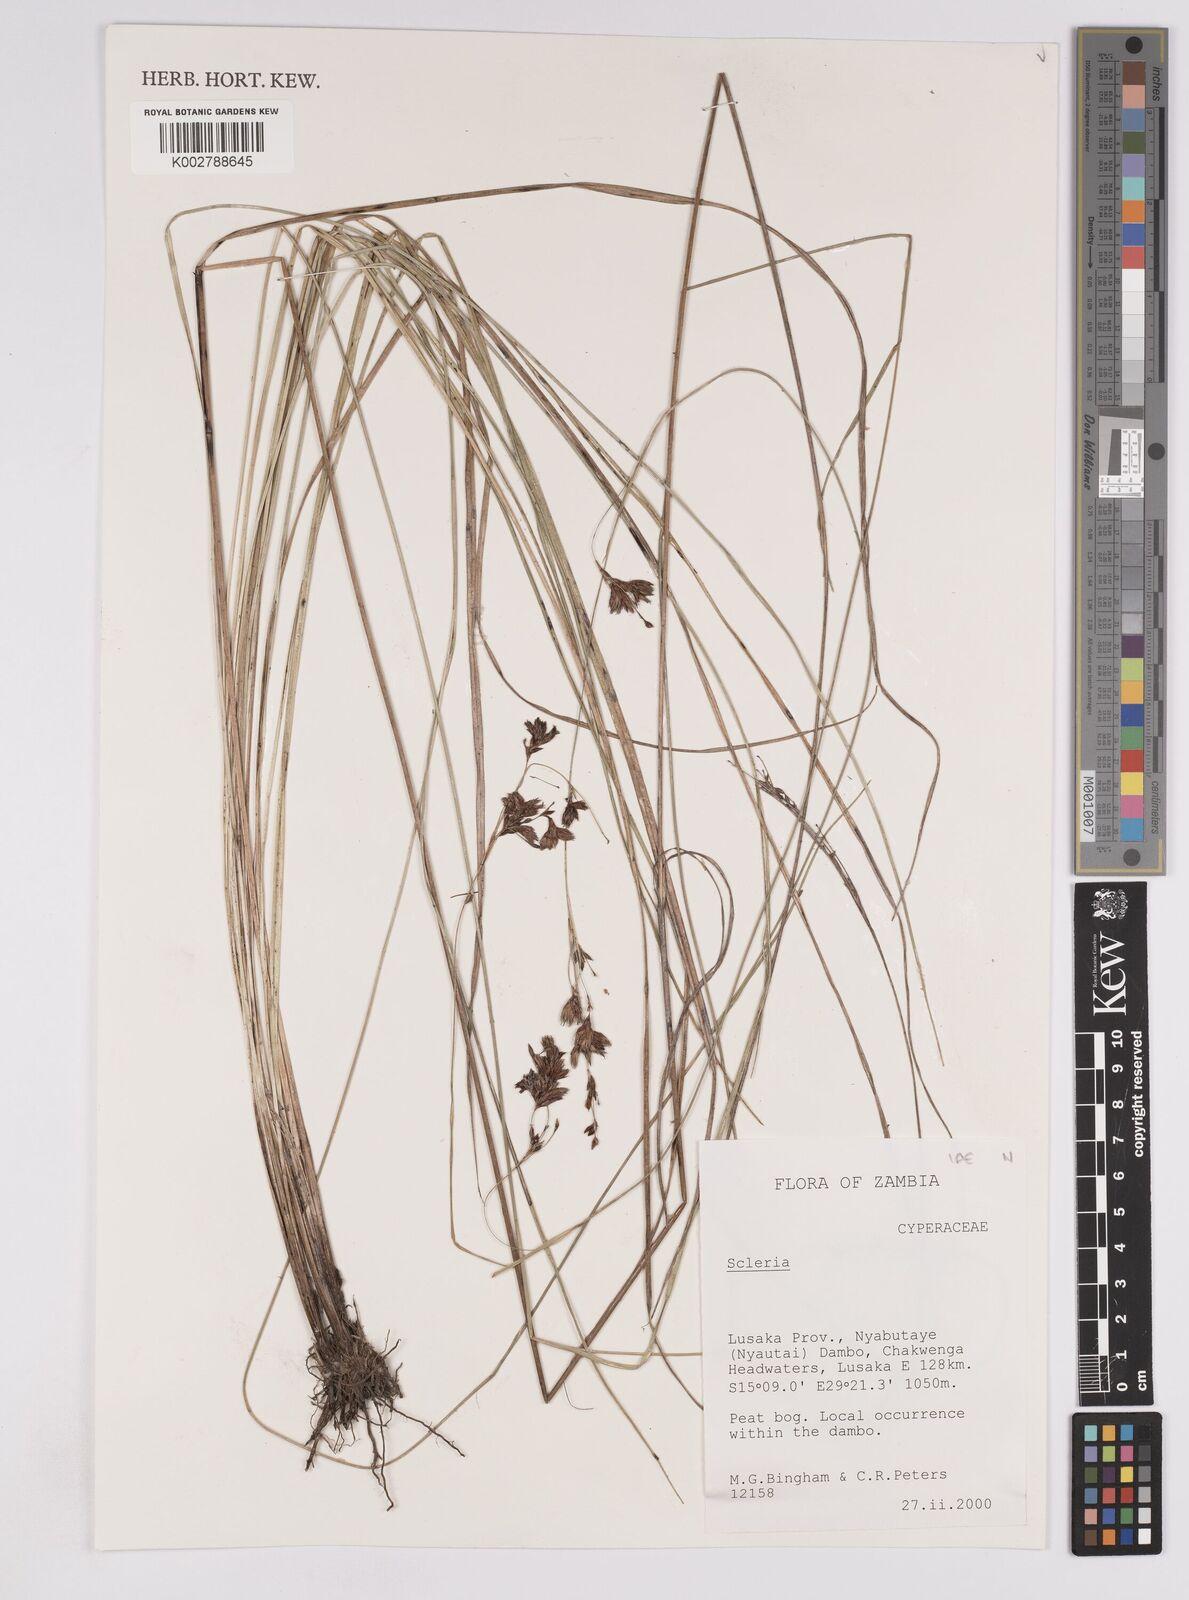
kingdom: Plantae
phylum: Tracheophyta
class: Liliopsida
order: Poales
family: Cyperaceae
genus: Scleria
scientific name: Scleria
